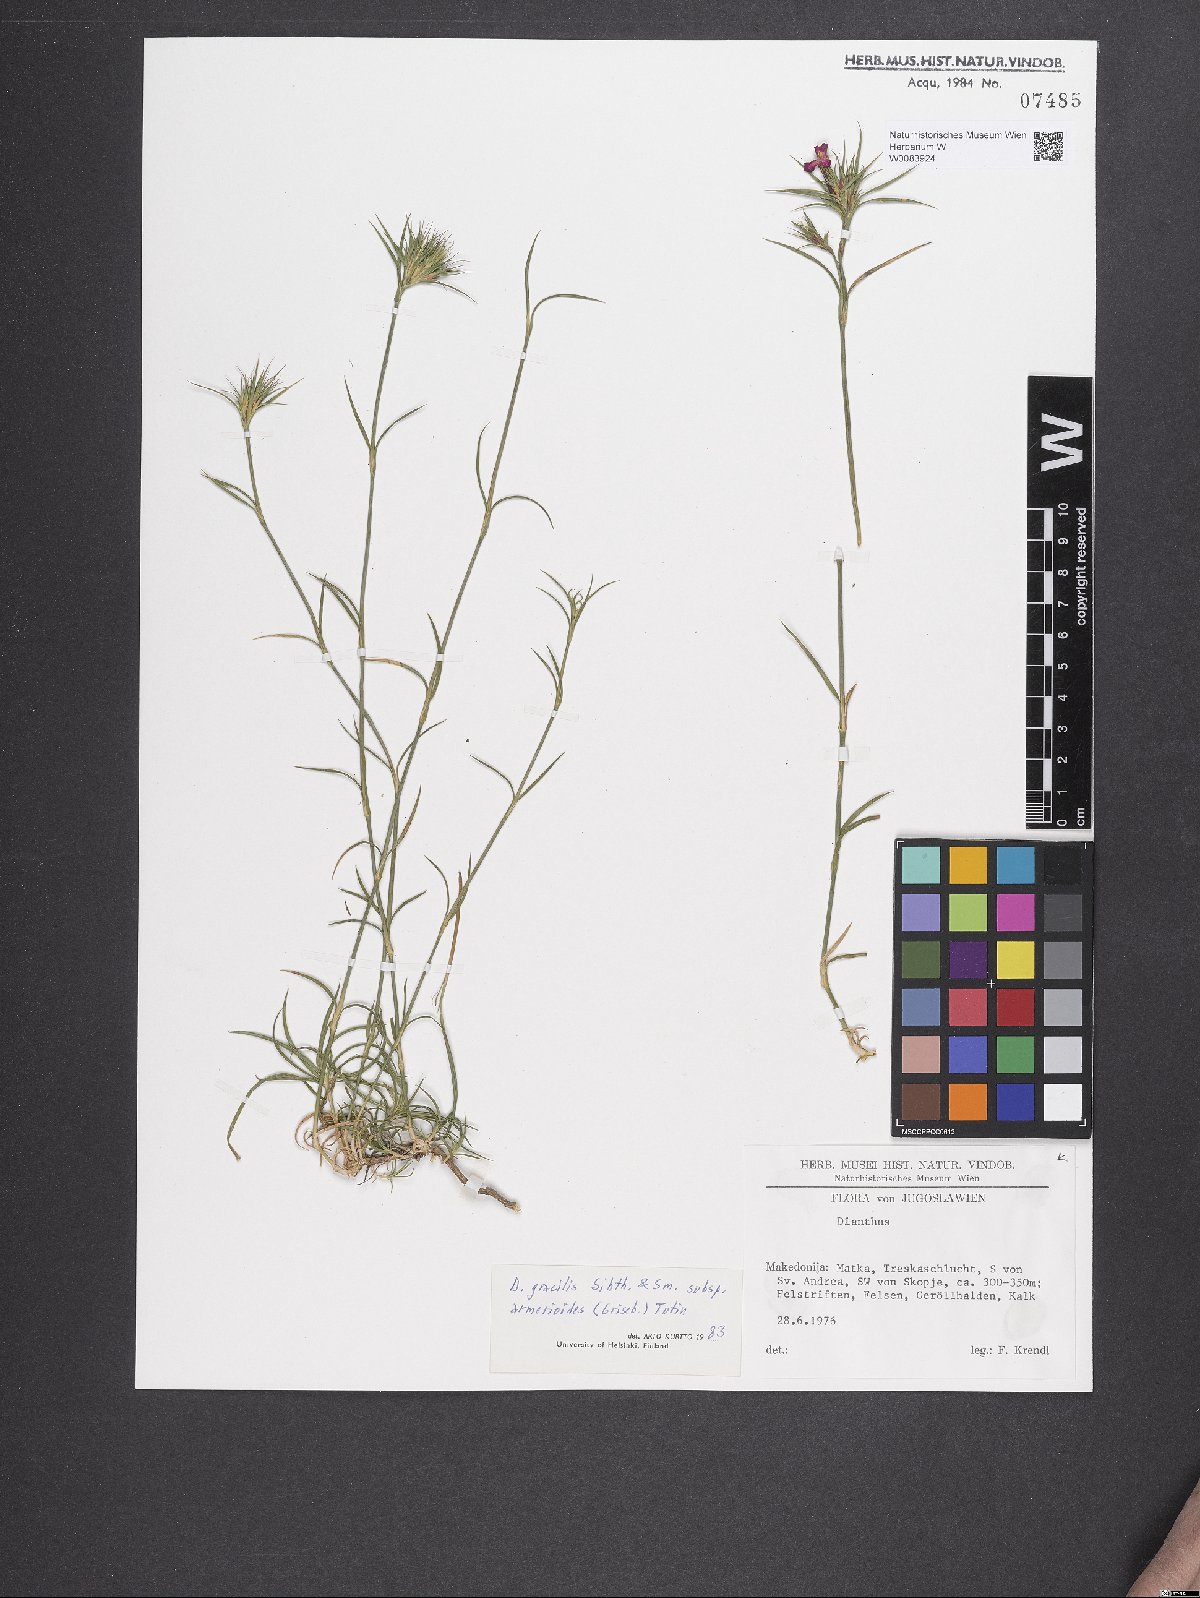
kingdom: Plantae
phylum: Tracheophyta
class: Magnoliopsida
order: Caryophyllales
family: Caryophyllaceae
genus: Dianthus
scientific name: Dianthus gracilis
